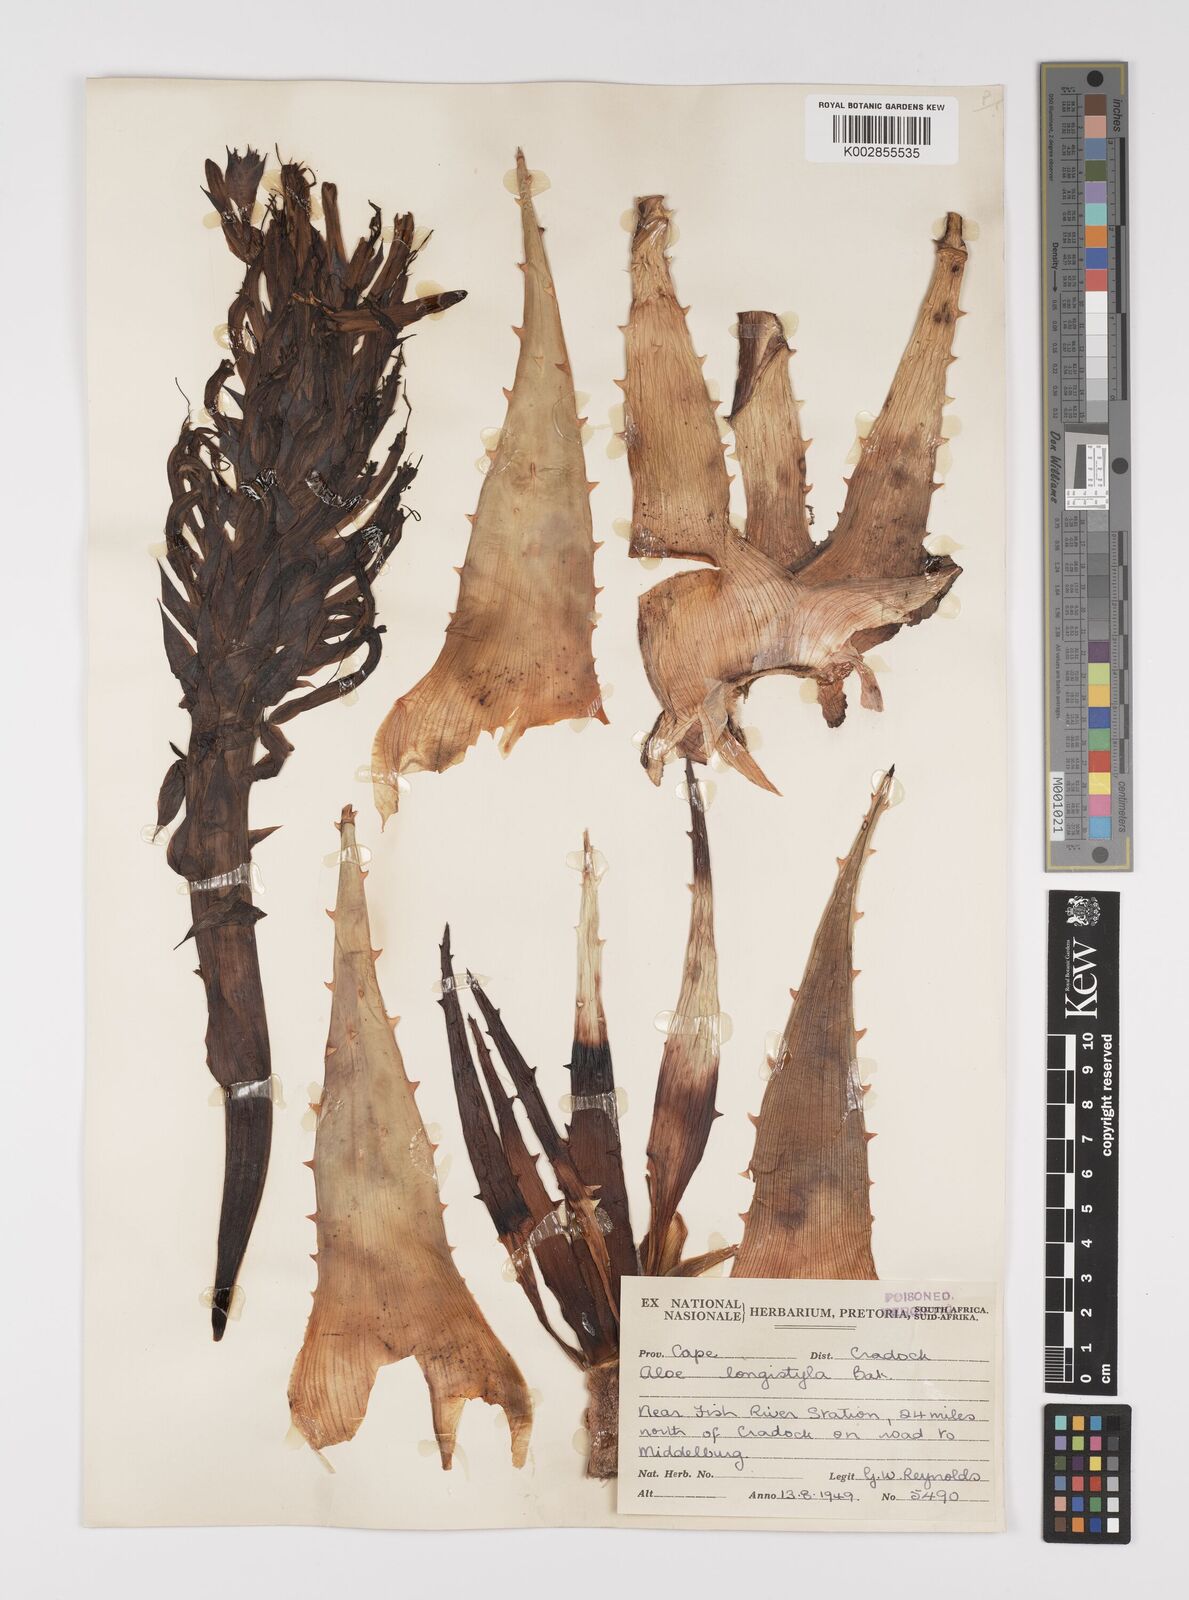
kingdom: Plantae
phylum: Tracheophyta
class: Liliopsida
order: Asparagales
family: Asphodelaceae
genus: Aloe
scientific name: Aloe longistyla
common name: Karoo aloe
